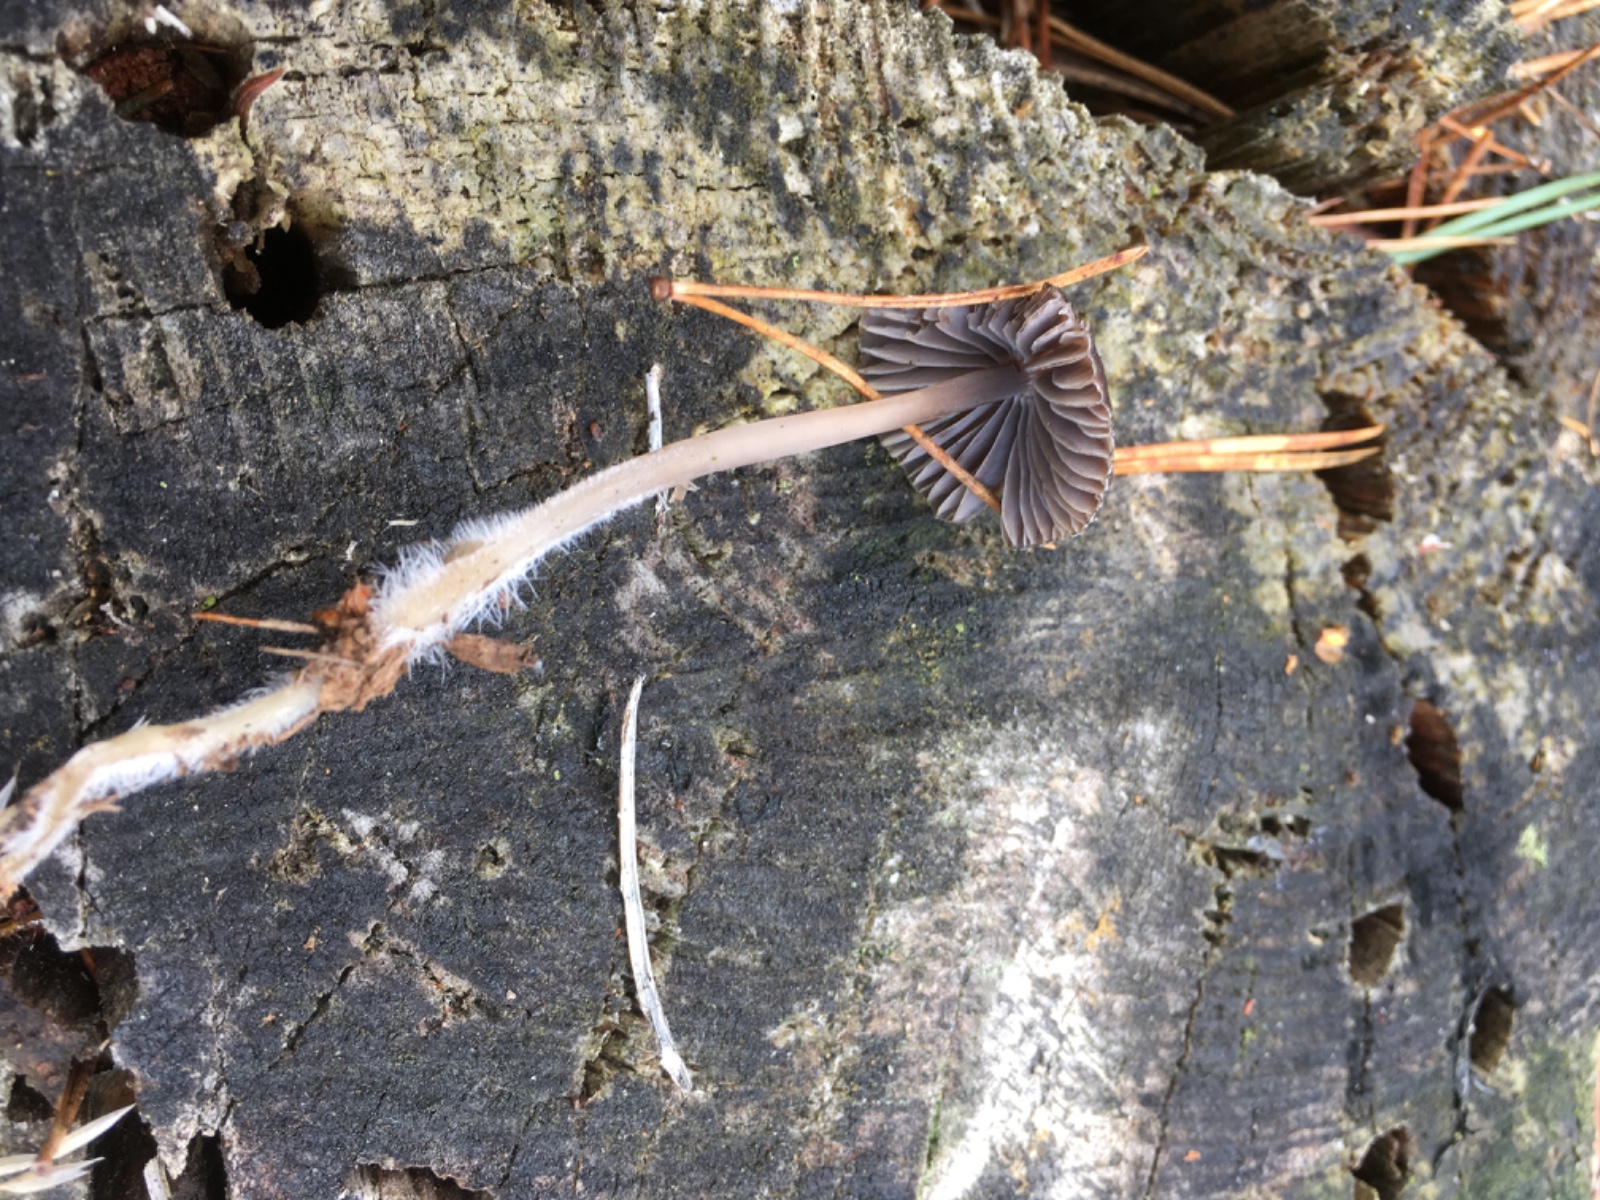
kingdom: Fungi
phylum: Basidiomycota
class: Agaricomycetes
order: Agaricales
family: Mycenaceae
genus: Mycena
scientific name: Mycena
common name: huesvamp
